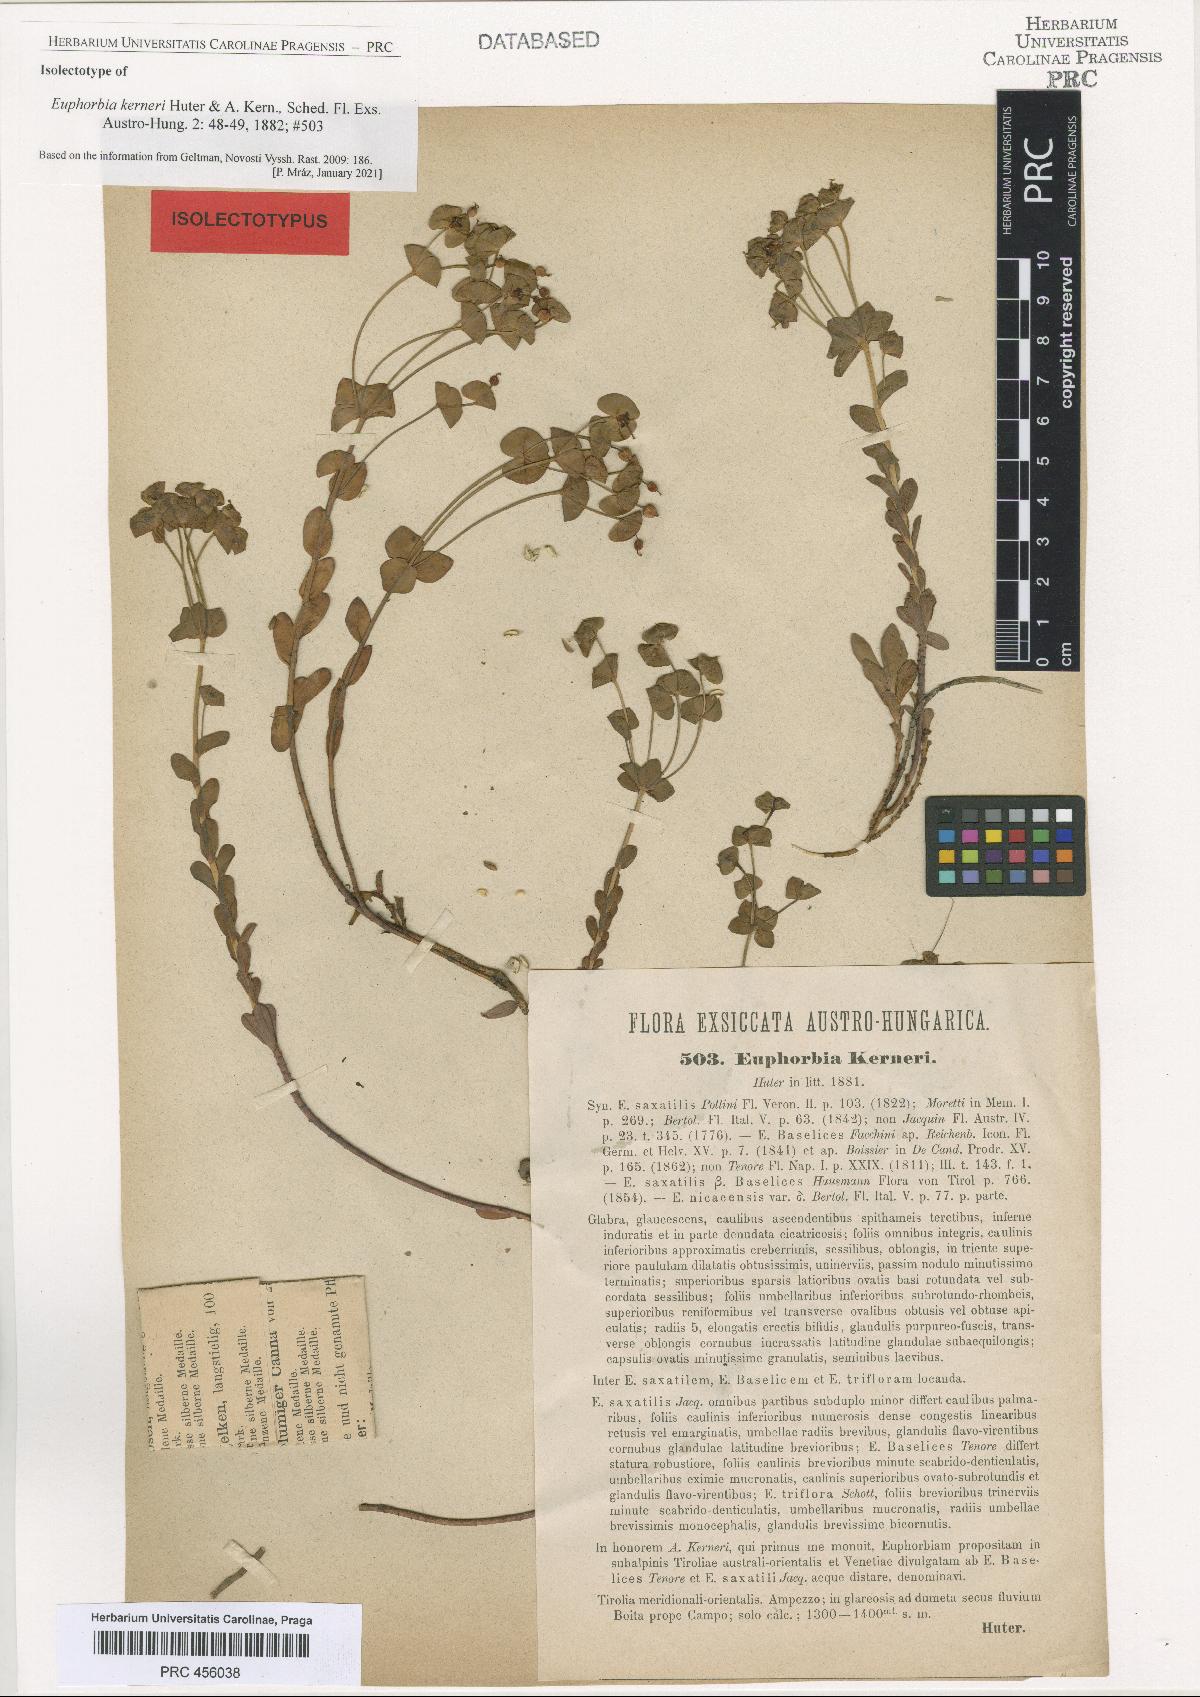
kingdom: Plantae
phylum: Tracheophyta
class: Magnoliopsida
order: Malpighiales
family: Euphorbiaceae
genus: Euphorbia
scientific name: Euphorbia kerneri
